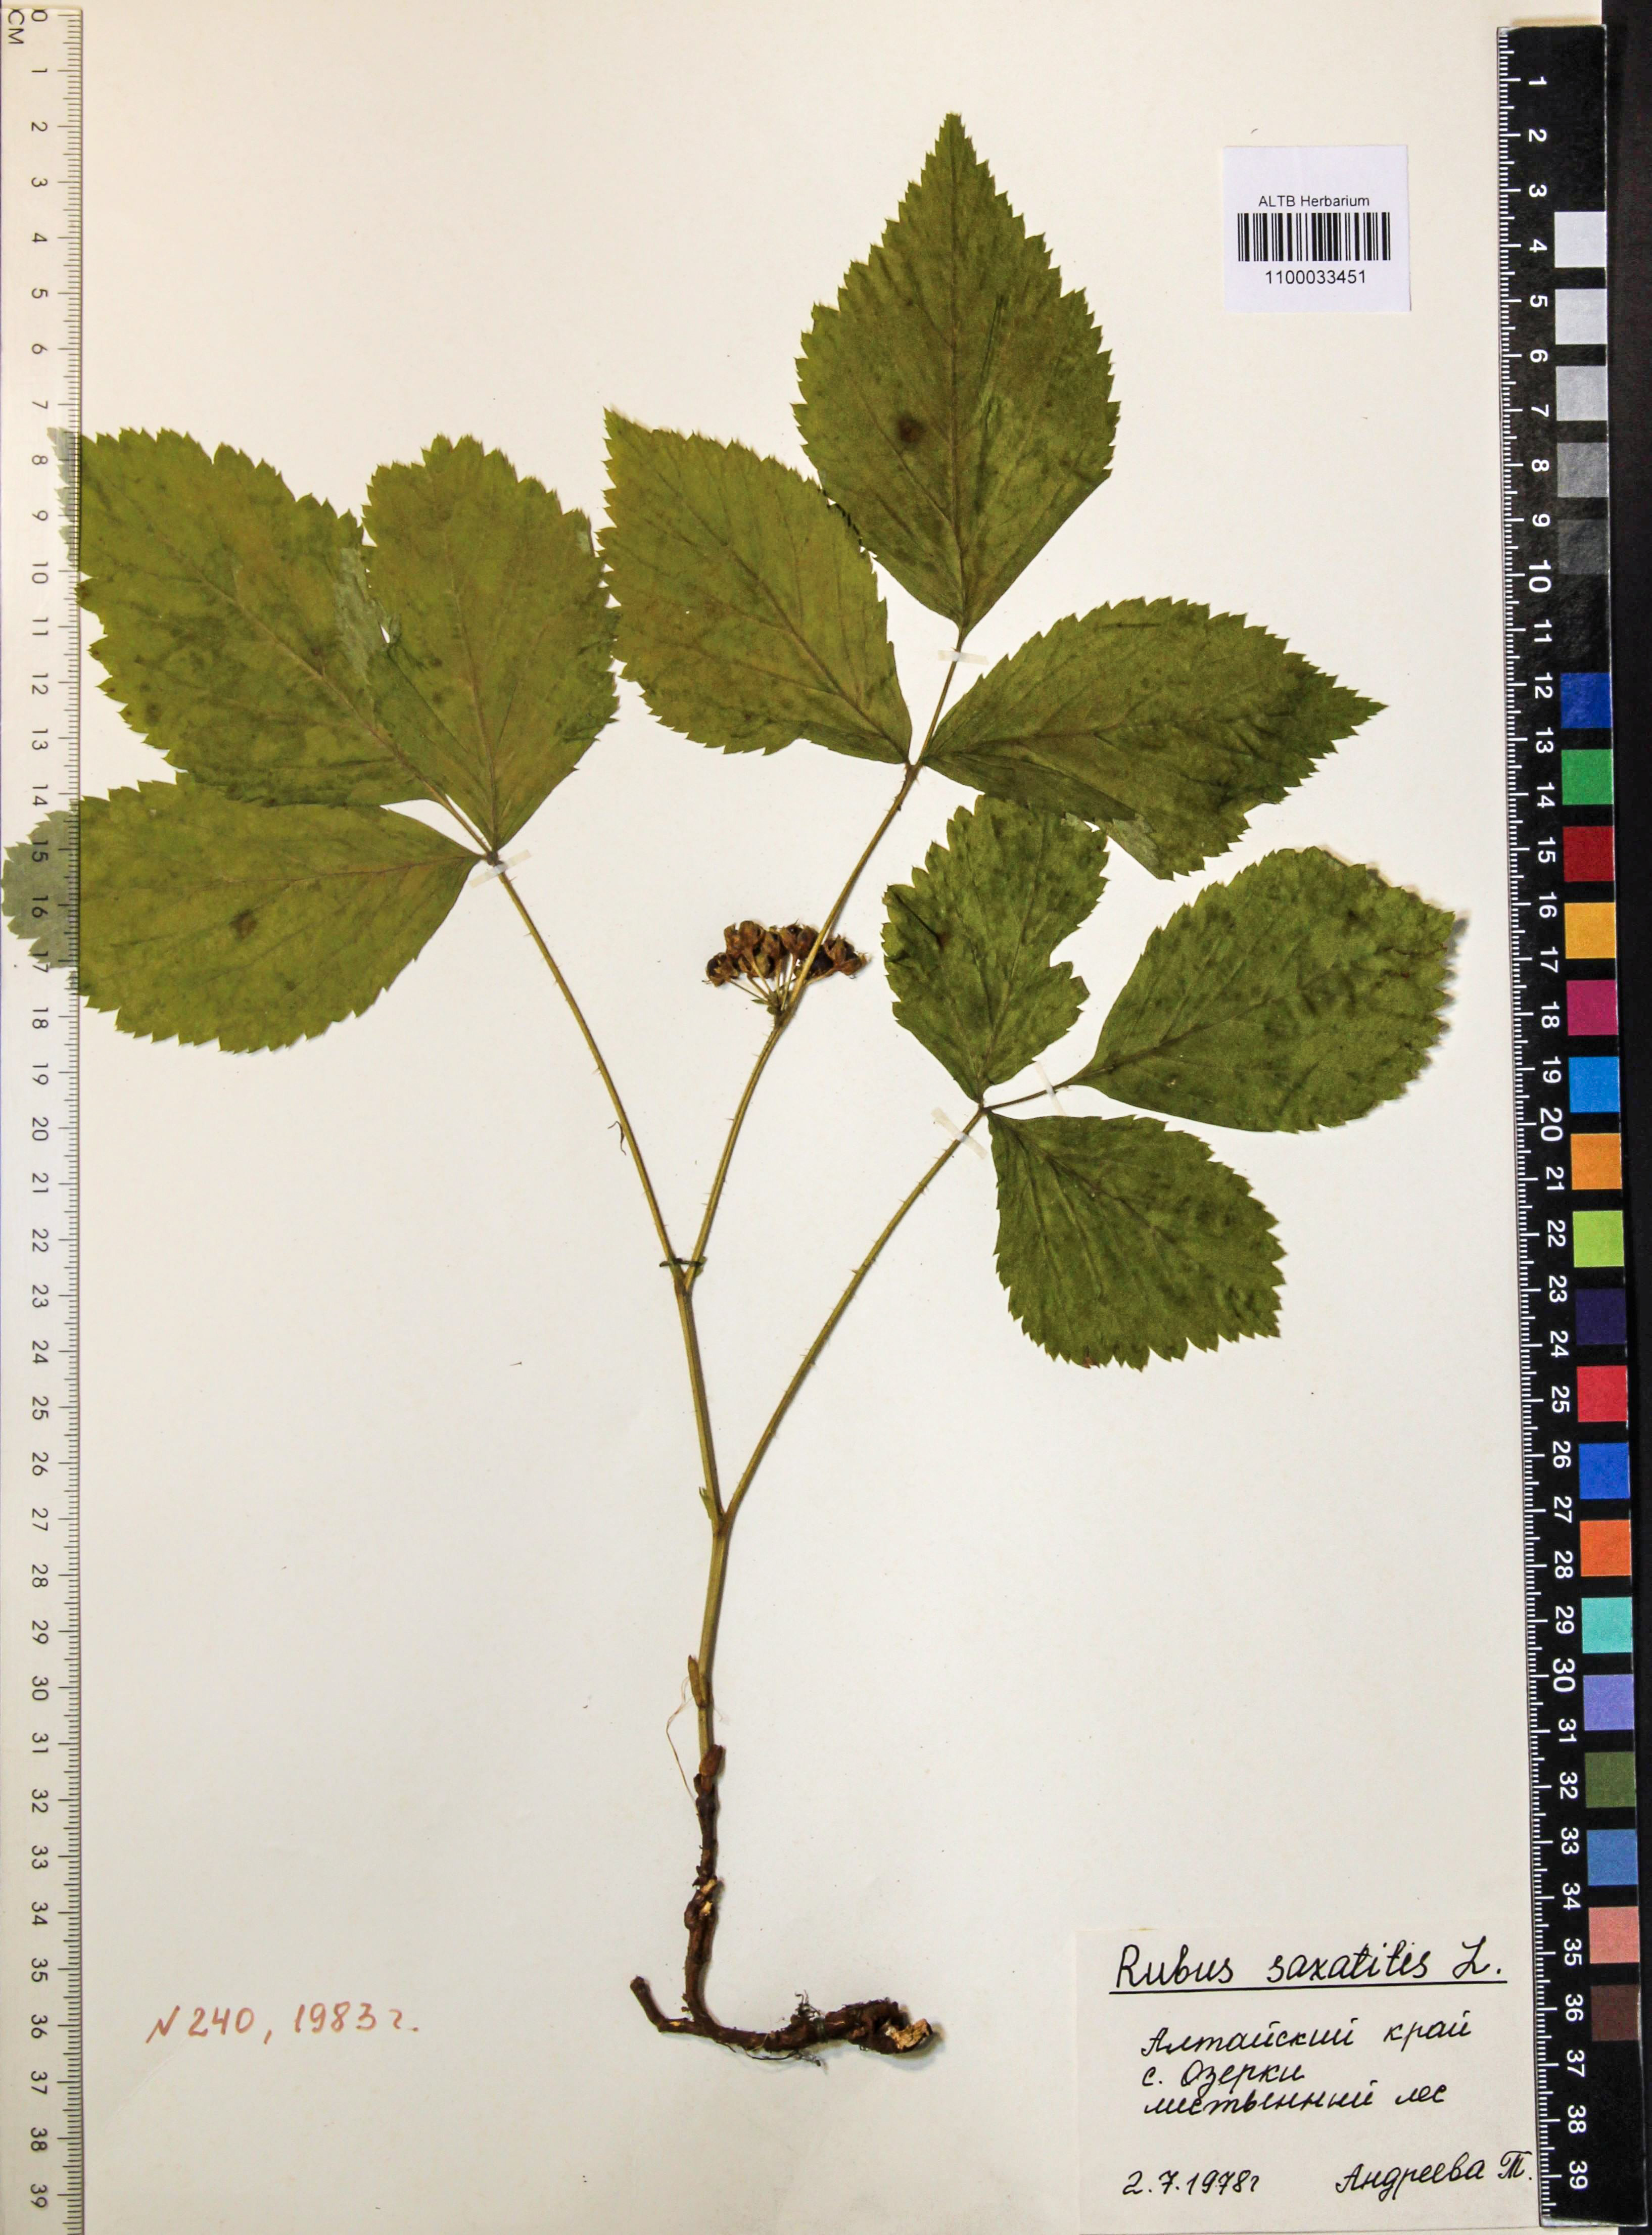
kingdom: Plantae
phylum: Tracheophyta
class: Magnoliopsida
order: Rosales
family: Rosaceae
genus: Rubus
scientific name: Rubus saxatilis
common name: Stone bramble
